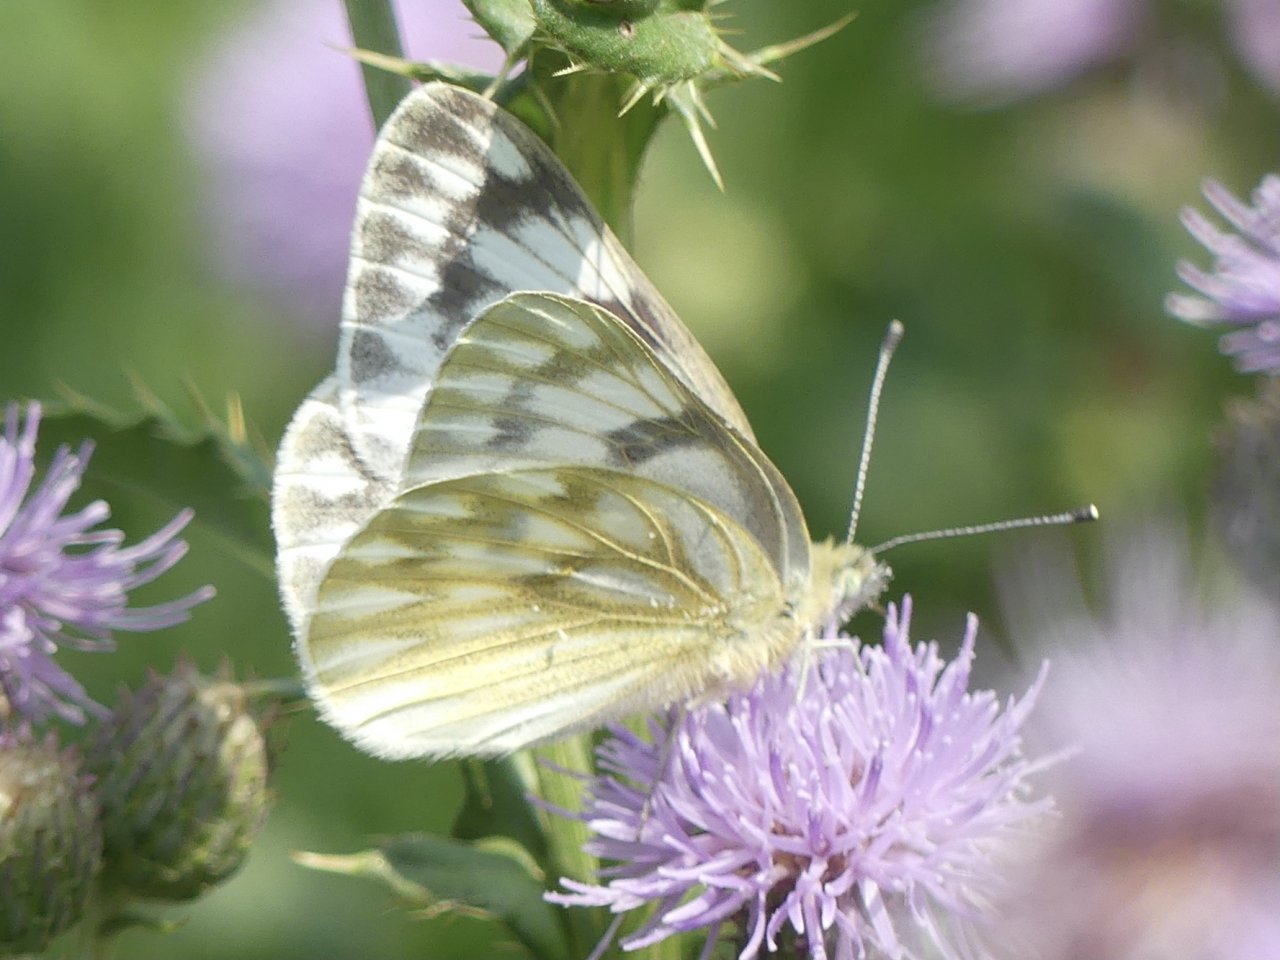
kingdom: Animalia
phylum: Arthropoda
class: Insecta
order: Lepidoptera
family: Pieridae
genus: Pontia
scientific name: Pontia occidentalis
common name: Western White
